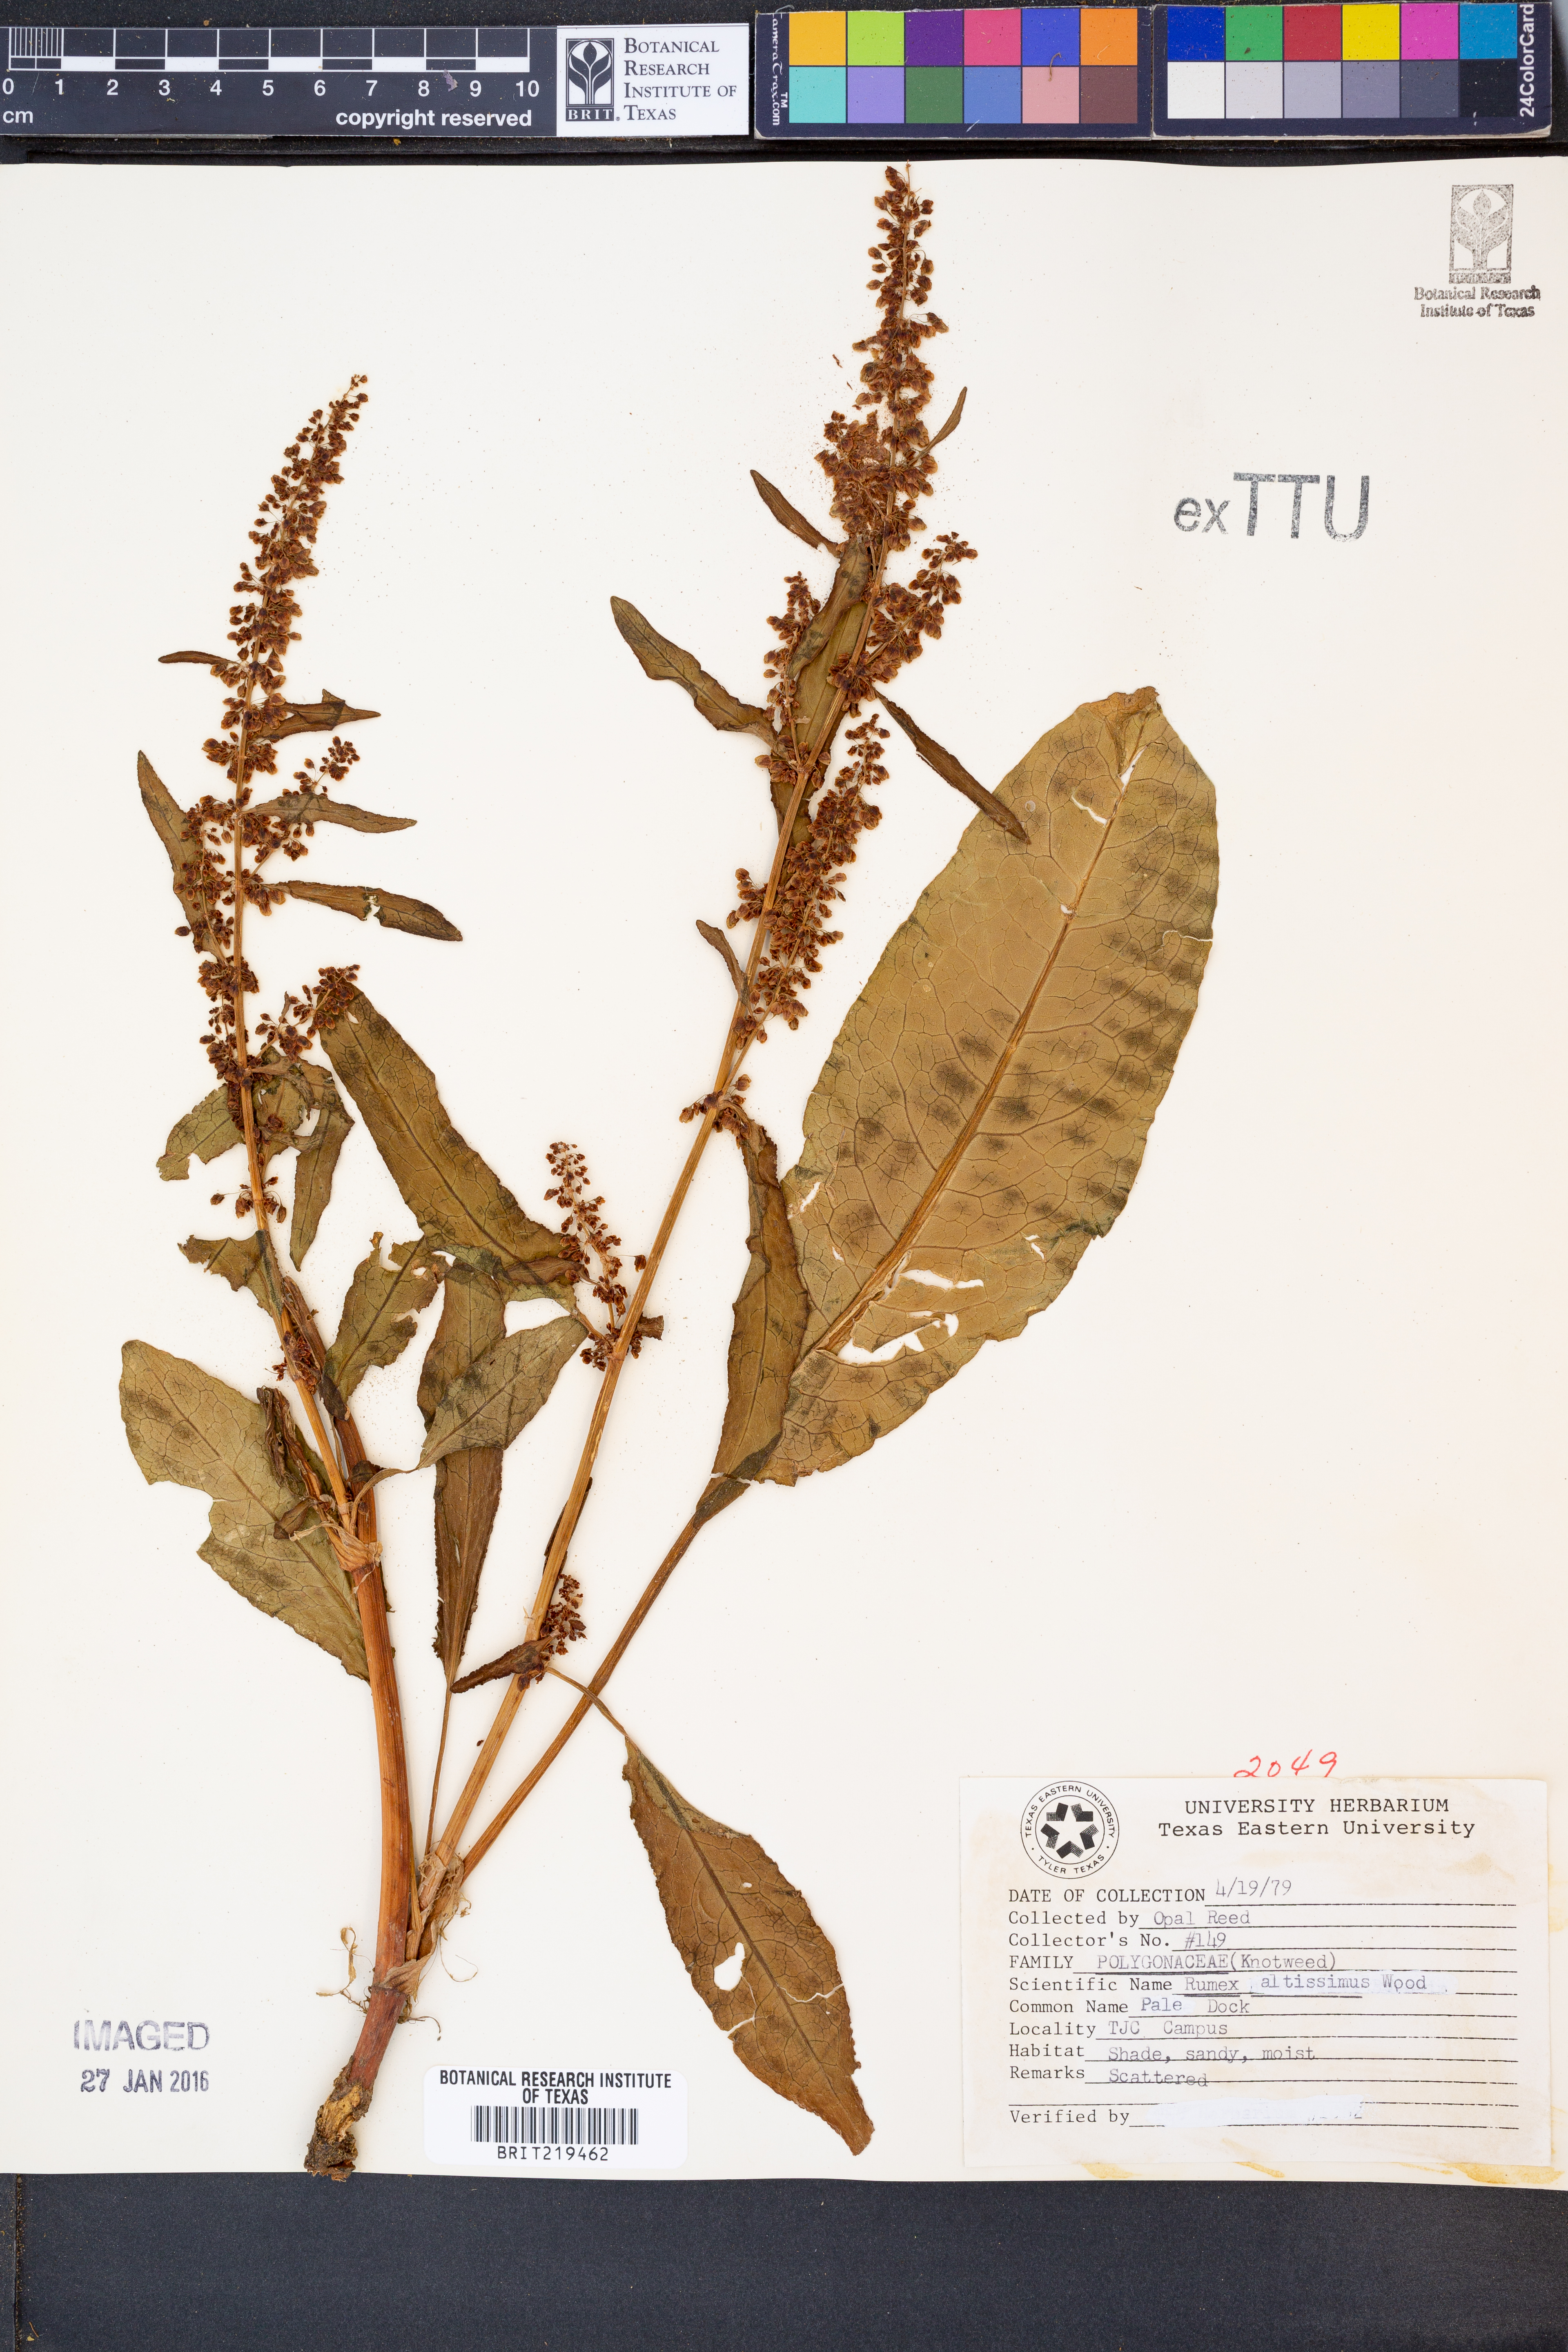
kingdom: Plantae
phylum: Tracheophyta
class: Magnoliopsida
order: Caryophyllales
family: Polygonaceae
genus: Rumex
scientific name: Rumex altissimus
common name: Smooth dock
